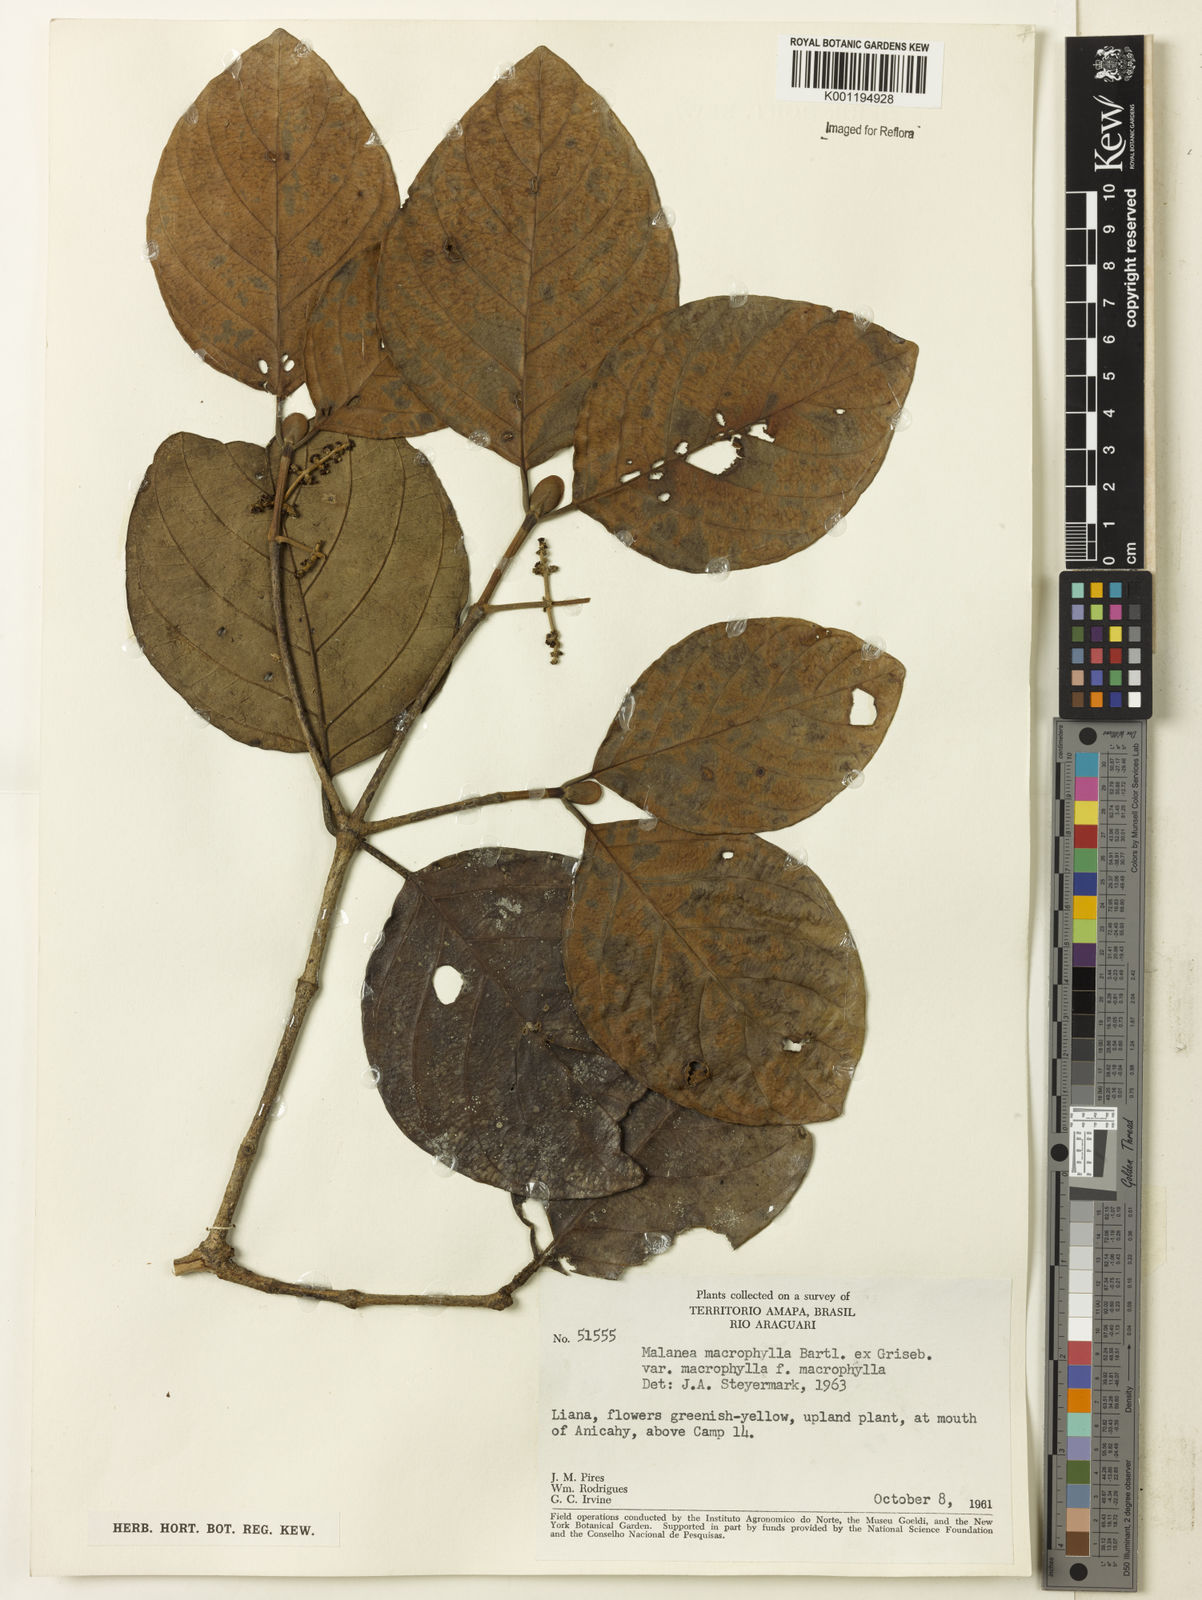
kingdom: Plantae
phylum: Tracheophyta
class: Magnoliopsida
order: Gentianales
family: Rubiaceae
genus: Malanea
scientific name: Malanea glabra
